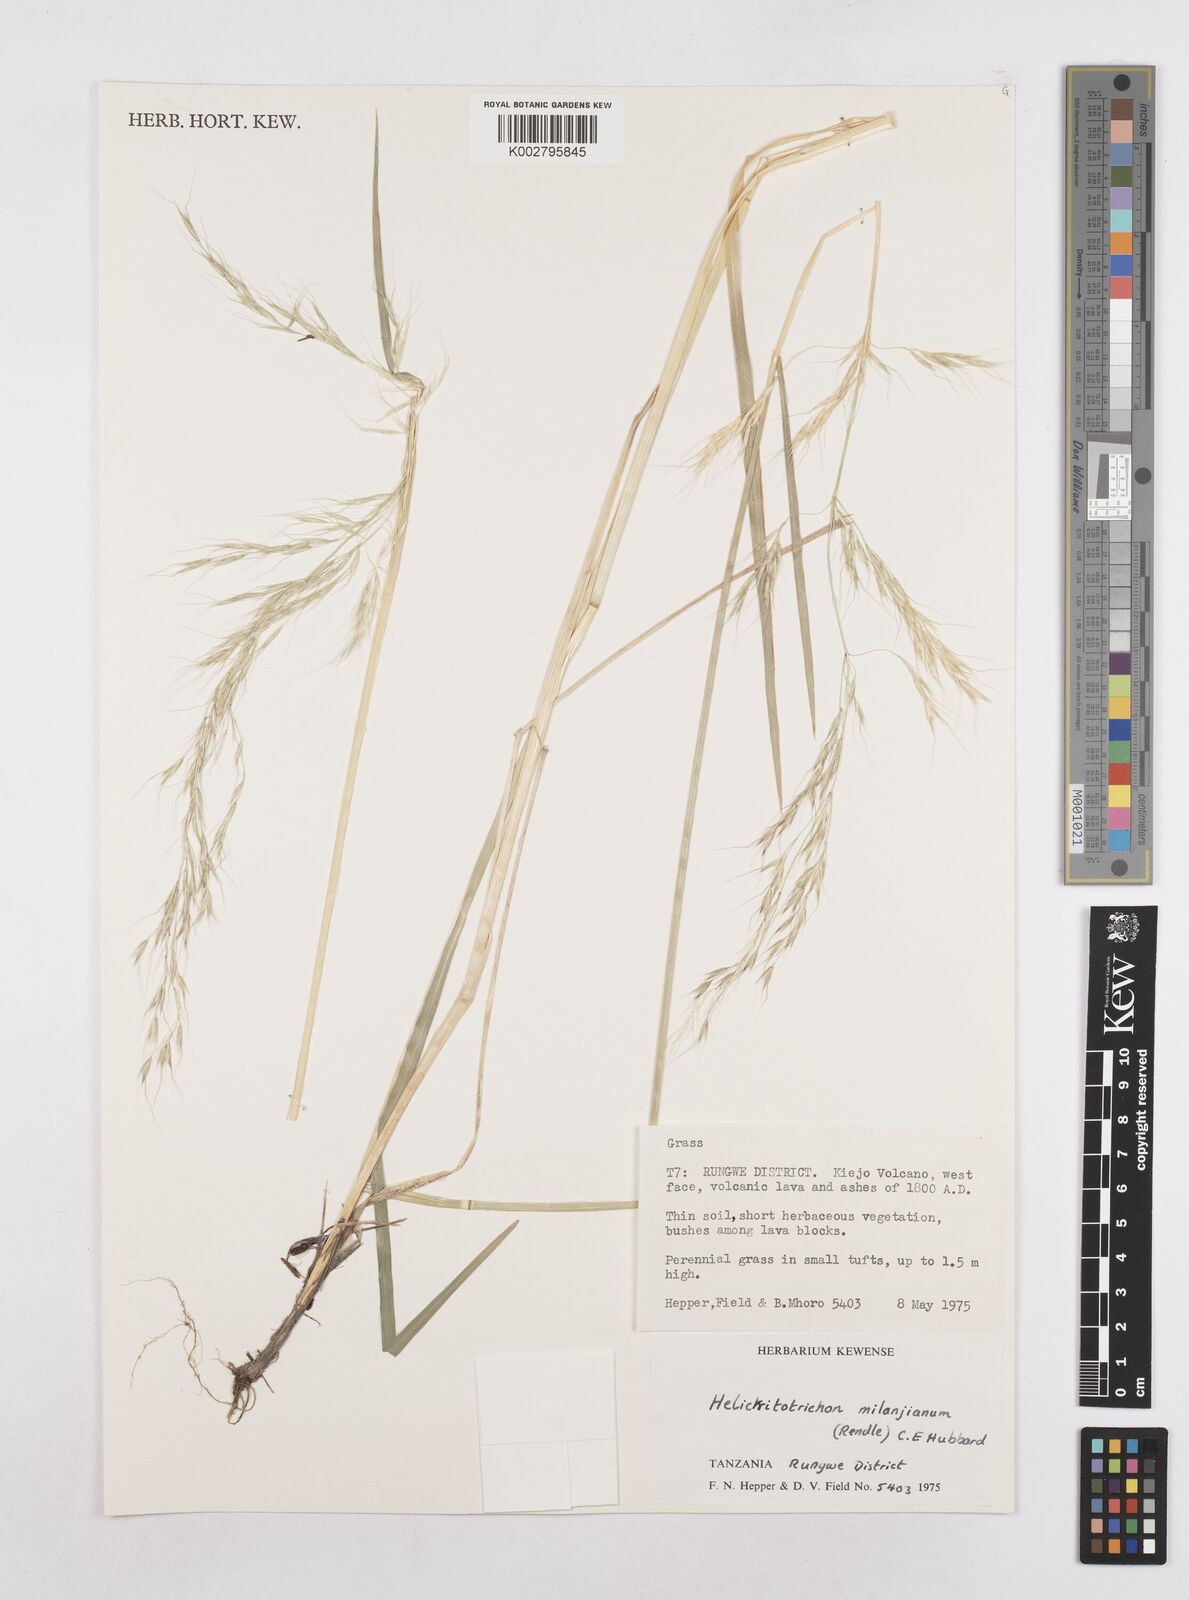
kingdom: Plantae
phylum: Tracheophyta
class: Liliopsida
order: Poales
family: Poaceae
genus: Trisetopsis
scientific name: Trisetopsis milanjiana
